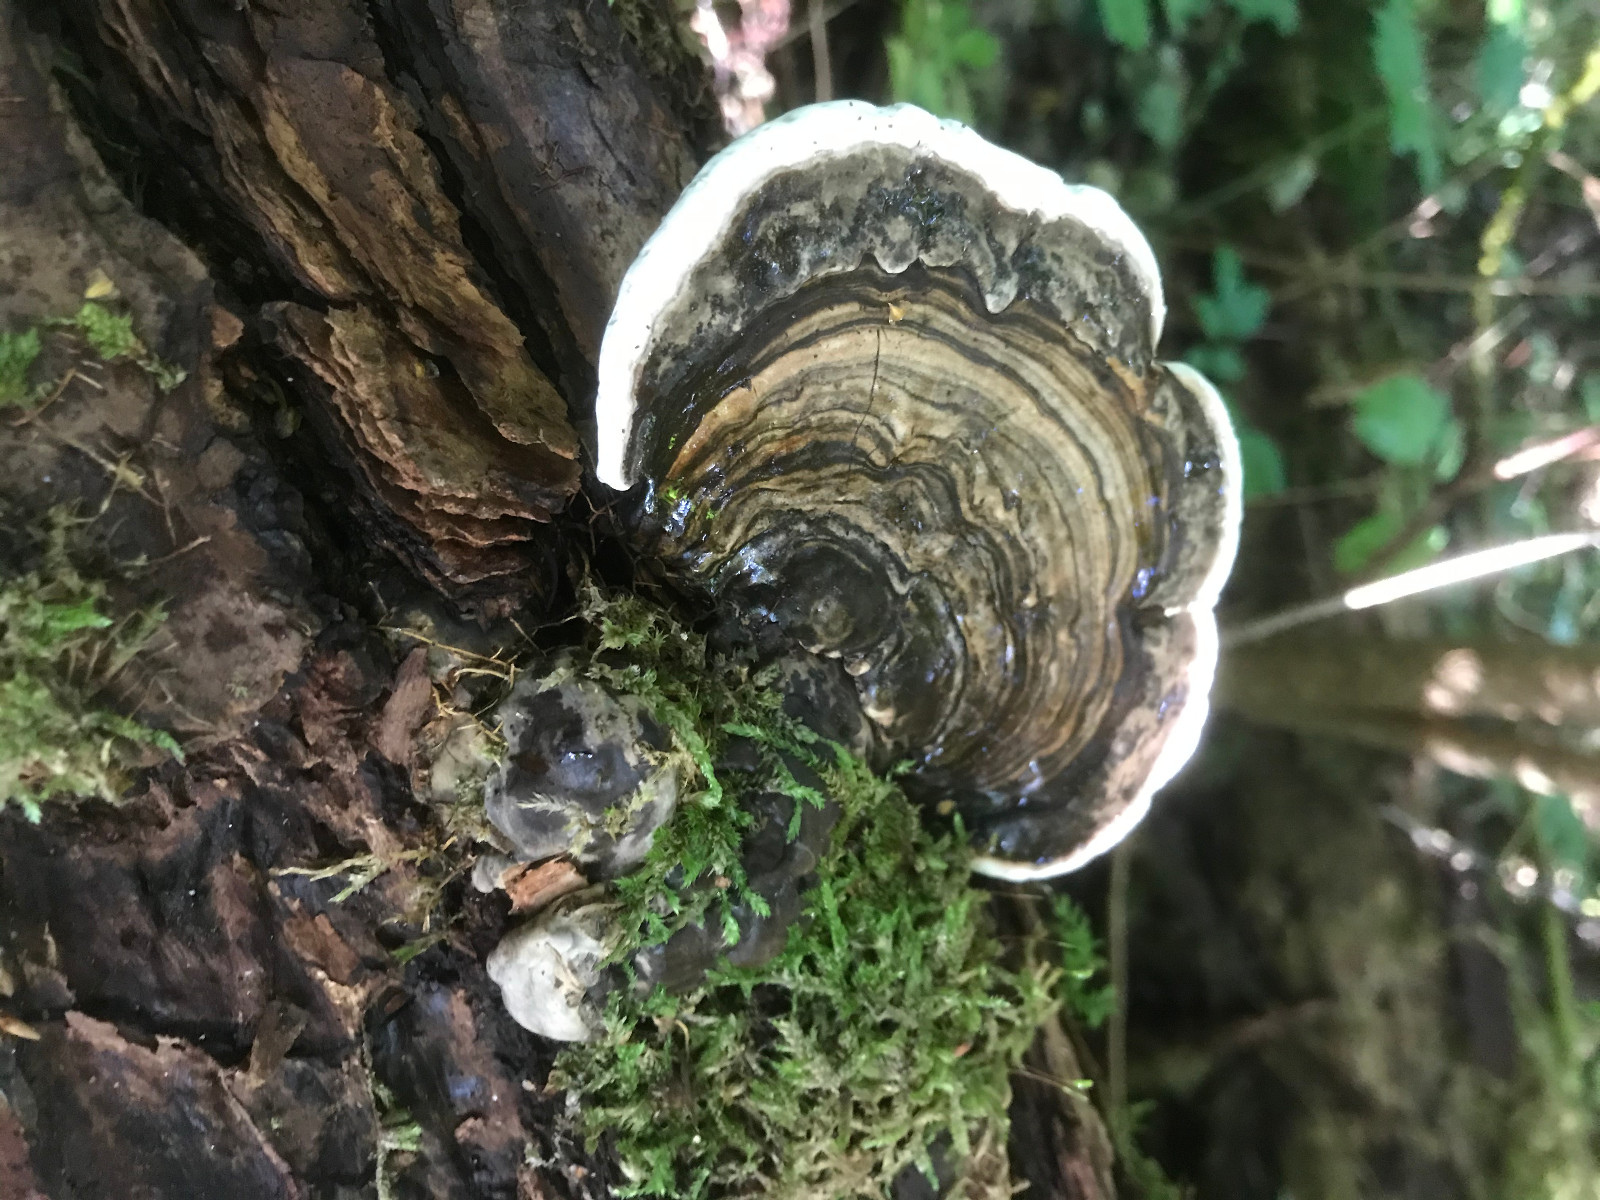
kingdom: Fungi
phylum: Basidiomycota
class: Agaricomycetes
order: Polyporales
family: Polyporaceae
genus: Trametes
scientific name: Trametes versicolor
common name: broget læderporesvamp
